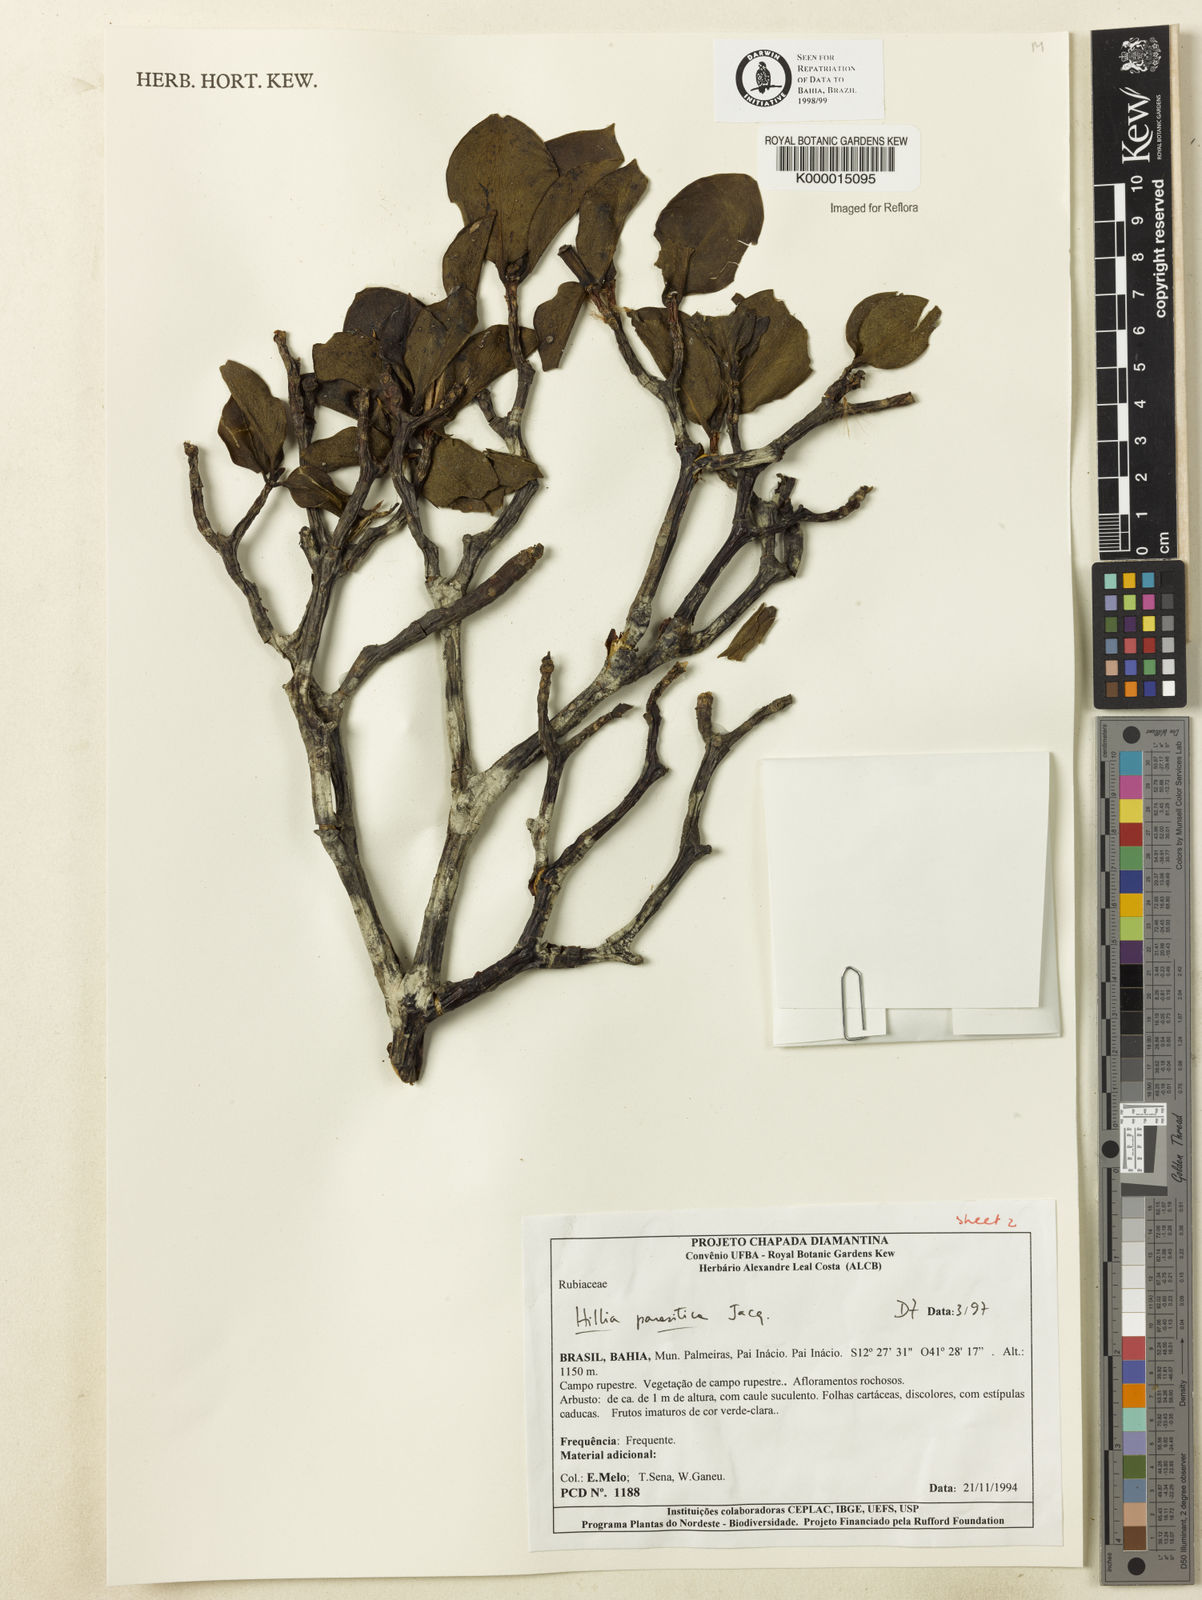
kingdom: Plantae
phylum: Tracheophyta
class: Magnoliopsida
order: Gentianales
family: Rubiaceae
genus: Hillia
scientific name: Hillia parasitica
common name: Morning star
